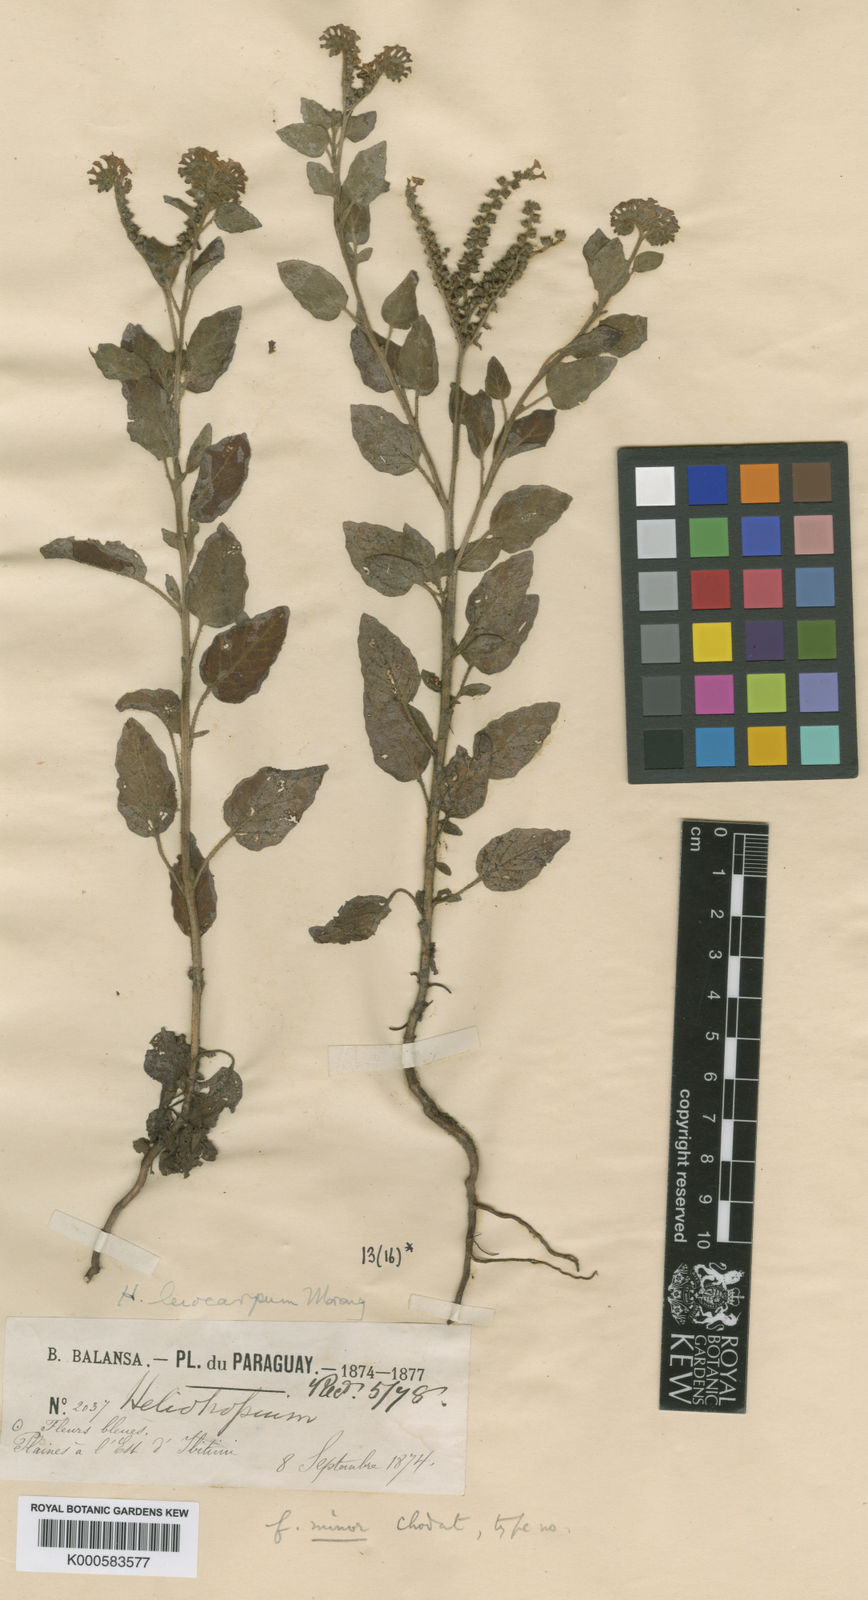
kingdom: Plantae
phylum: Tracheophyta
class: Magnoliopsida
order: Boraginales
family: Heliotropiaceae
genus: Heliotropium
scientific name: Heliotropium leiocarpum
